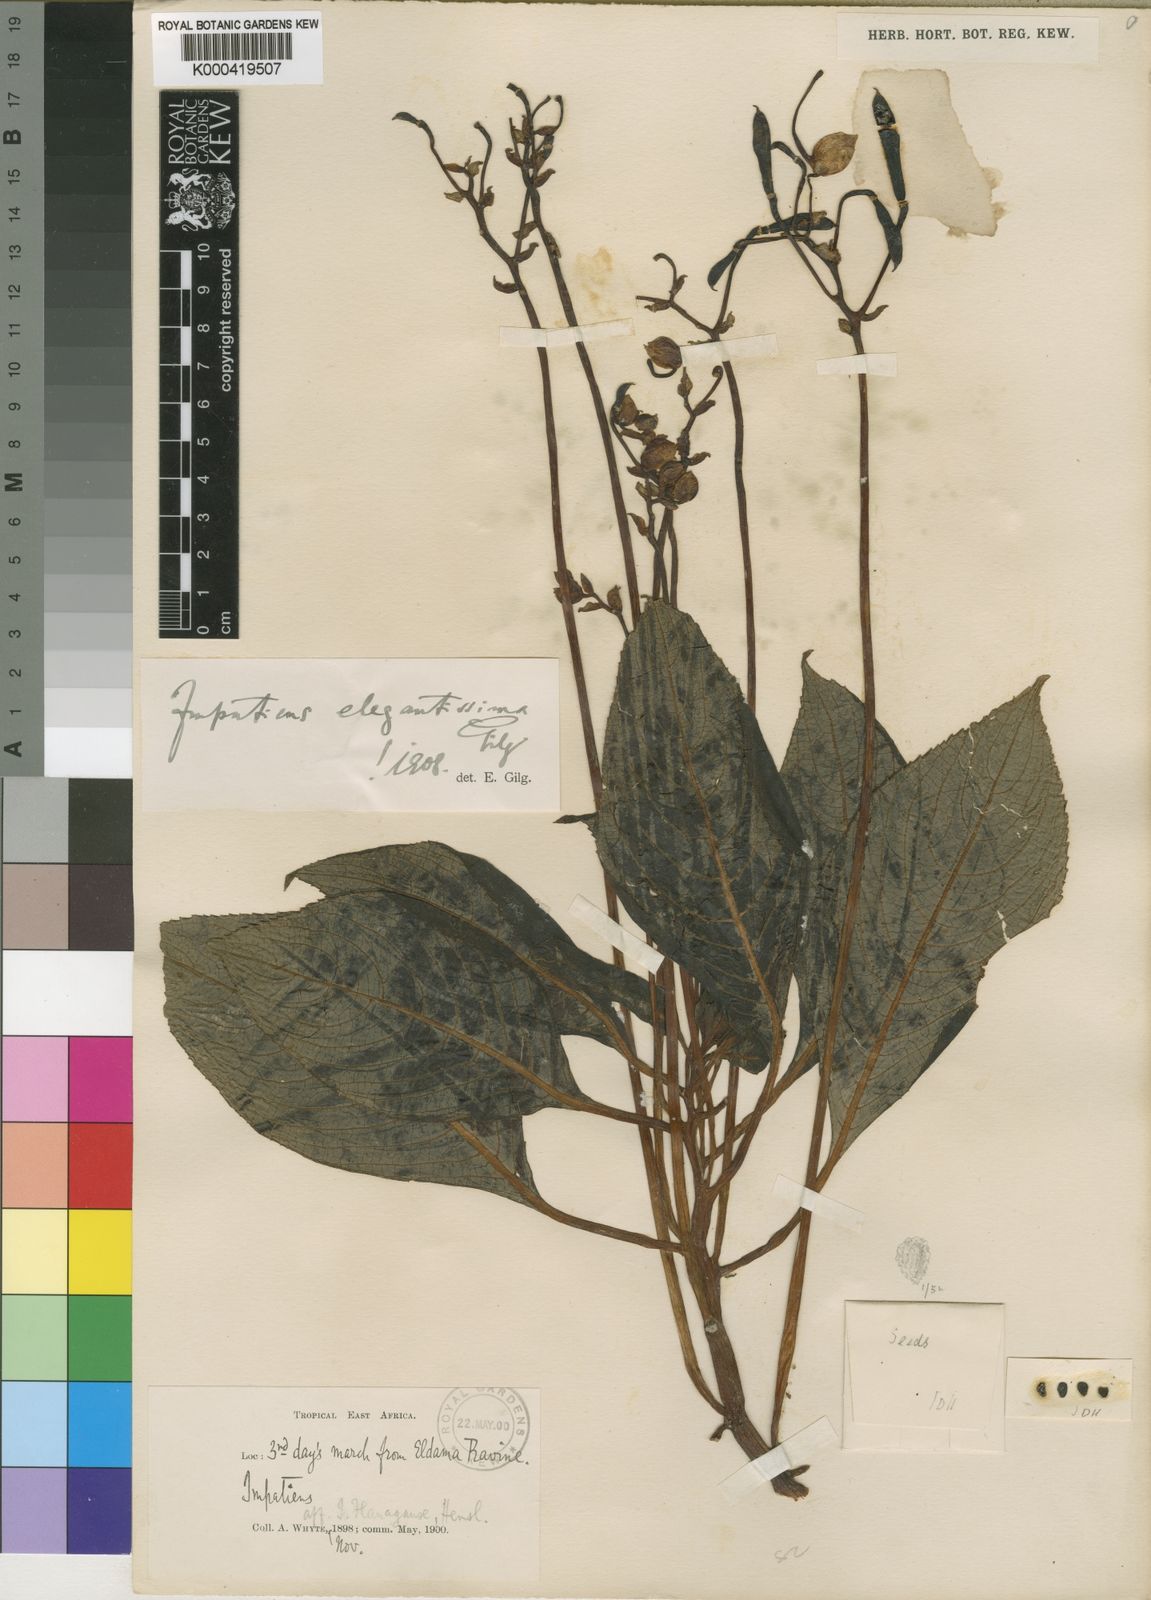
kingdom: Plantae
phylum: Tracheophyta
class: Magnoliopsida
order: Ericales
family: Balsaminaceae
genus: Impatiens
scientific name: Impatiens tinctoria
